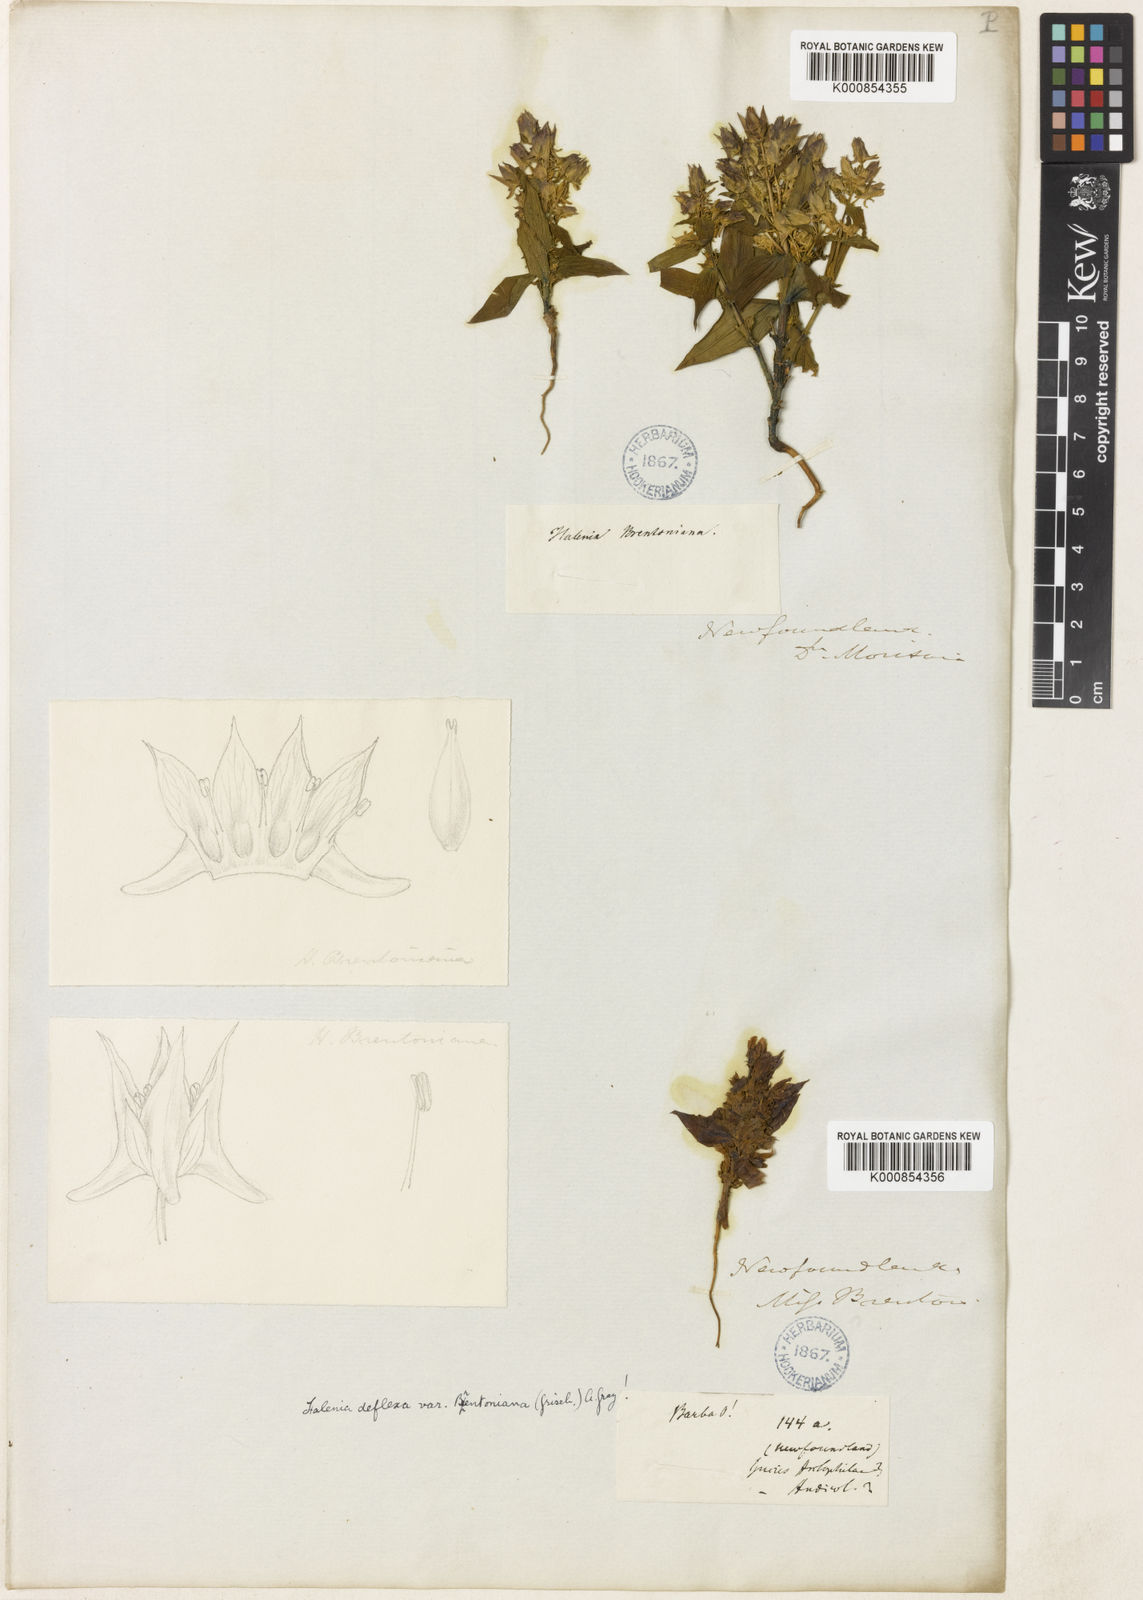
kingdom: Plantae
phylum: Tracheophyta
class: Magnoliopsida
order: Gentianales
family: Gentianaceae
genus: Halenia
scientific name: Halenia deflexa
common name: American spurred gentian
